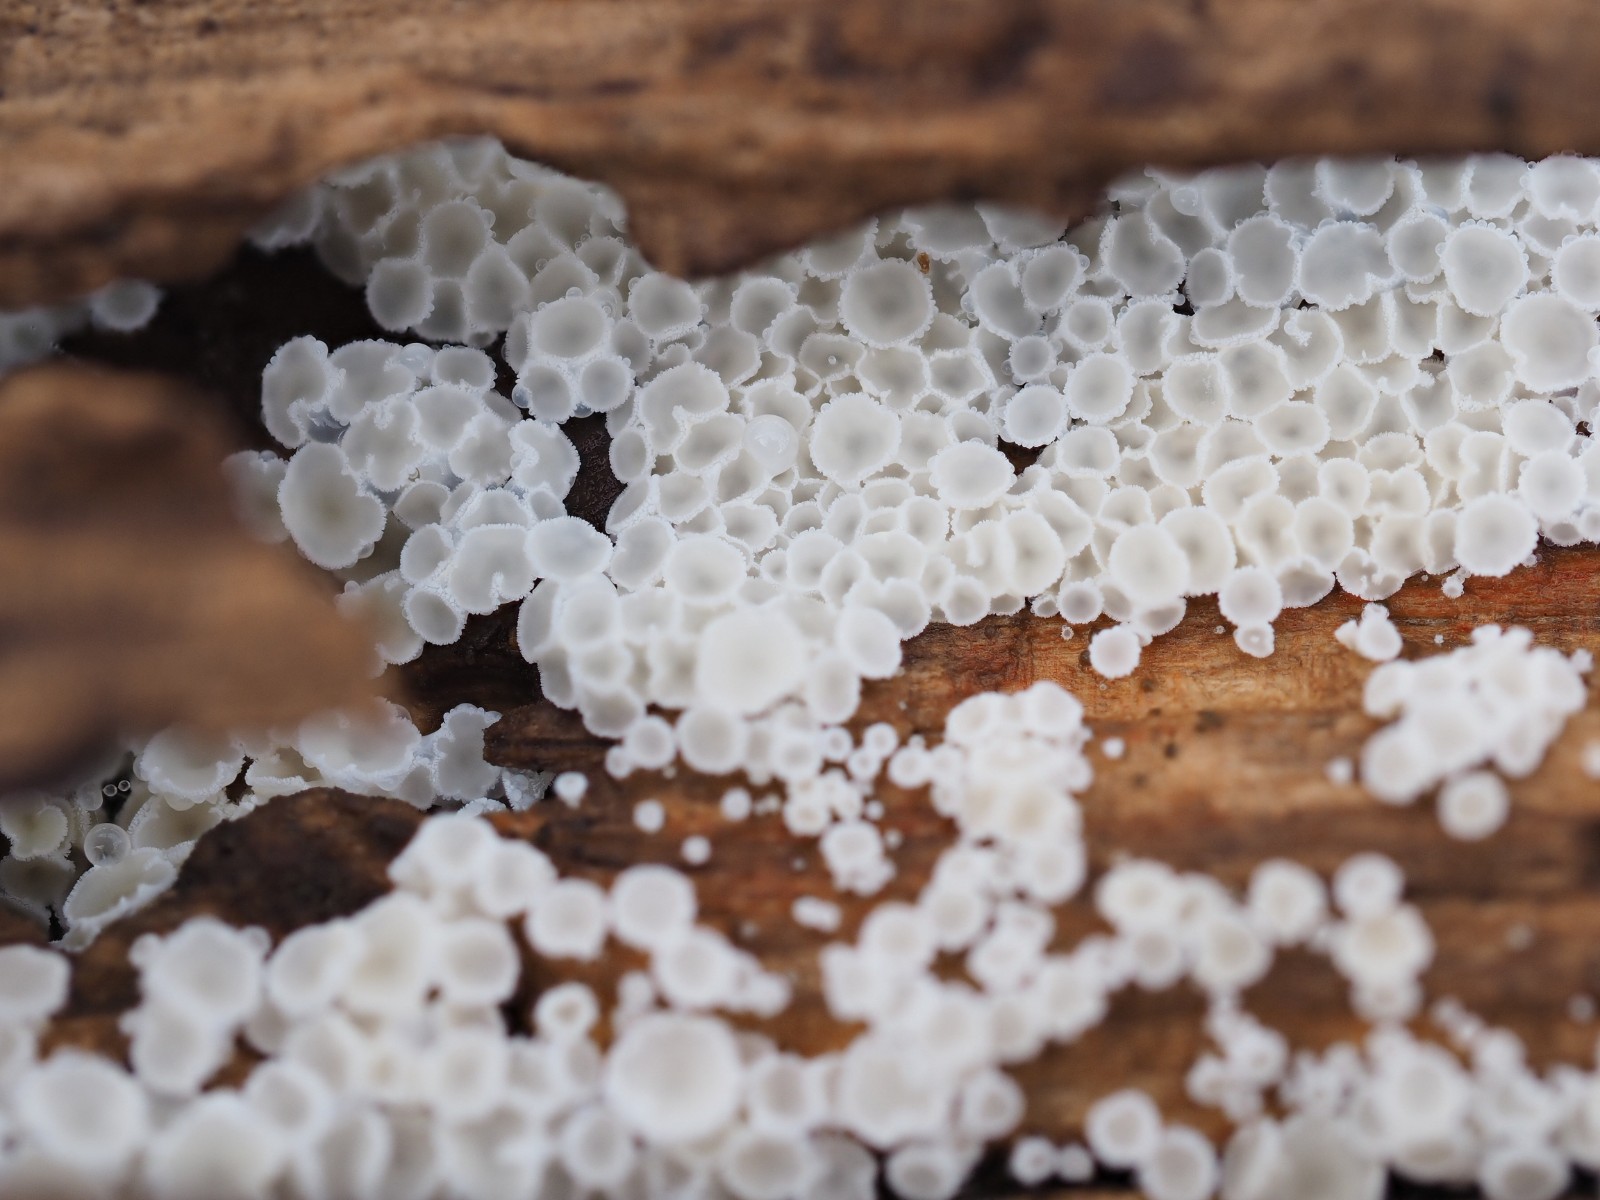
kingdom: Fungi
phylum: Ascomycota
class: Leotiomycetes
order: Helotiales
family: Lachnaceae
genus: Lachnum
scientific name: Lachnum
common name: frynseskive
